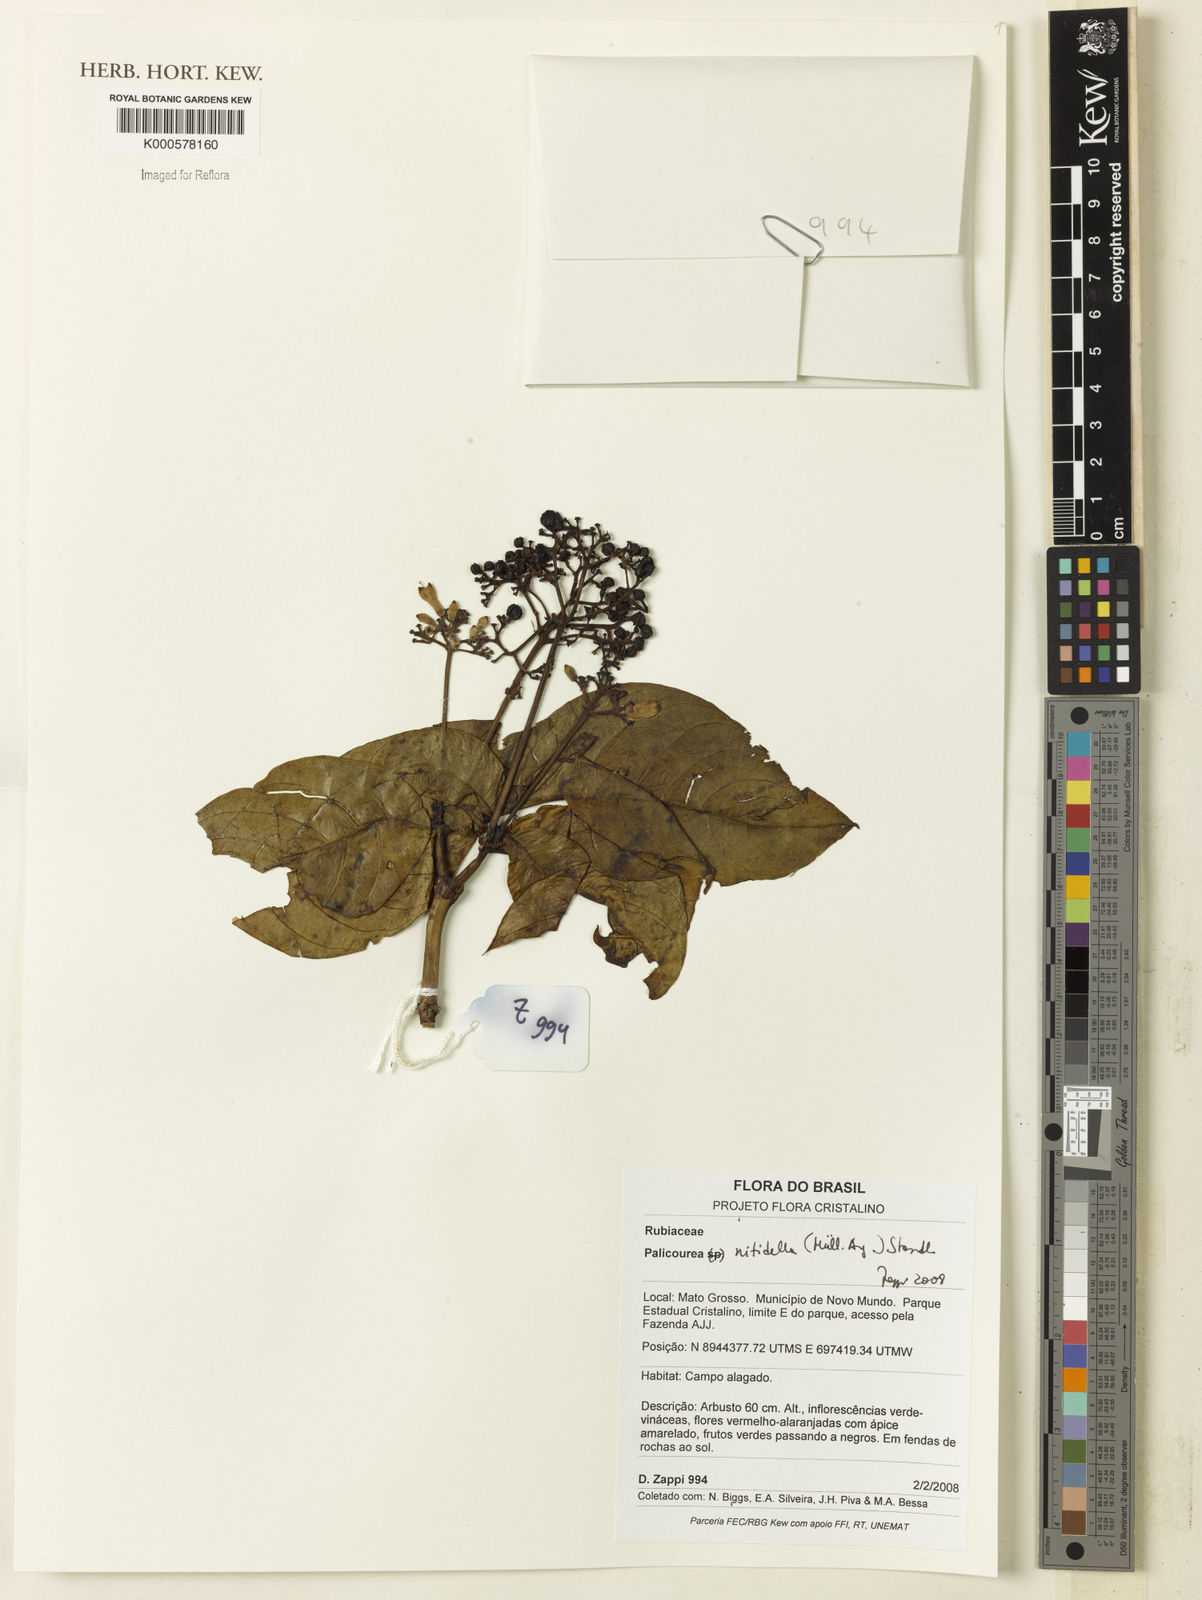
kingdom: Plantae
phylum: Tracheophyta
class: Magnoliopsida
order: Gentianales
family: Rubiaceae
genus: Palicourea
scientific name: Palicourea
